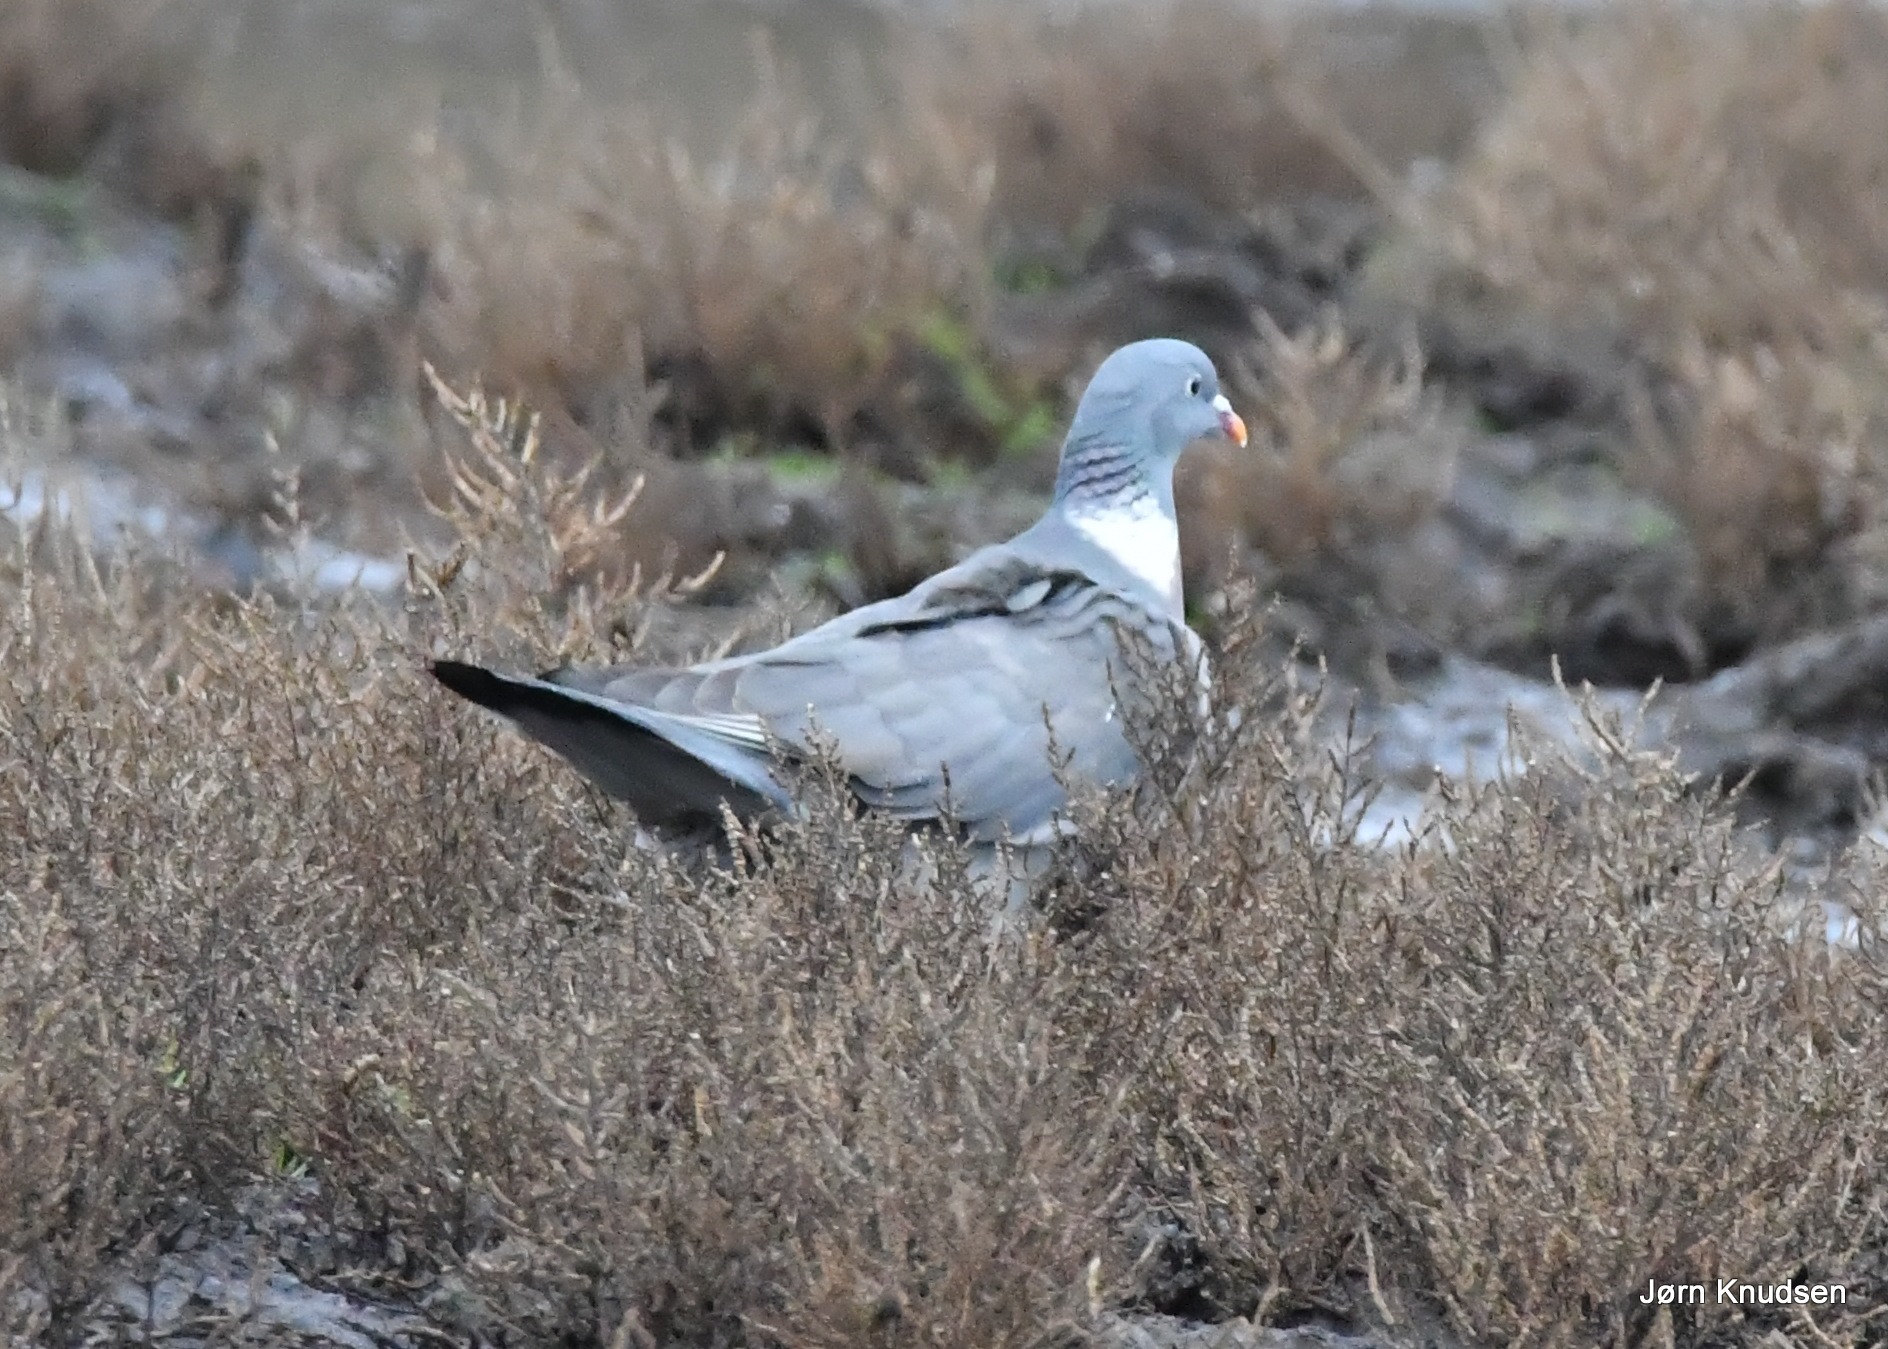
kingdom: Animalia
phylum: Chordata
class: Aves
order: Columbiformes
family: Columbidae
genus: Columba
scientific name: Columba palumbus
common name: Ringdue
